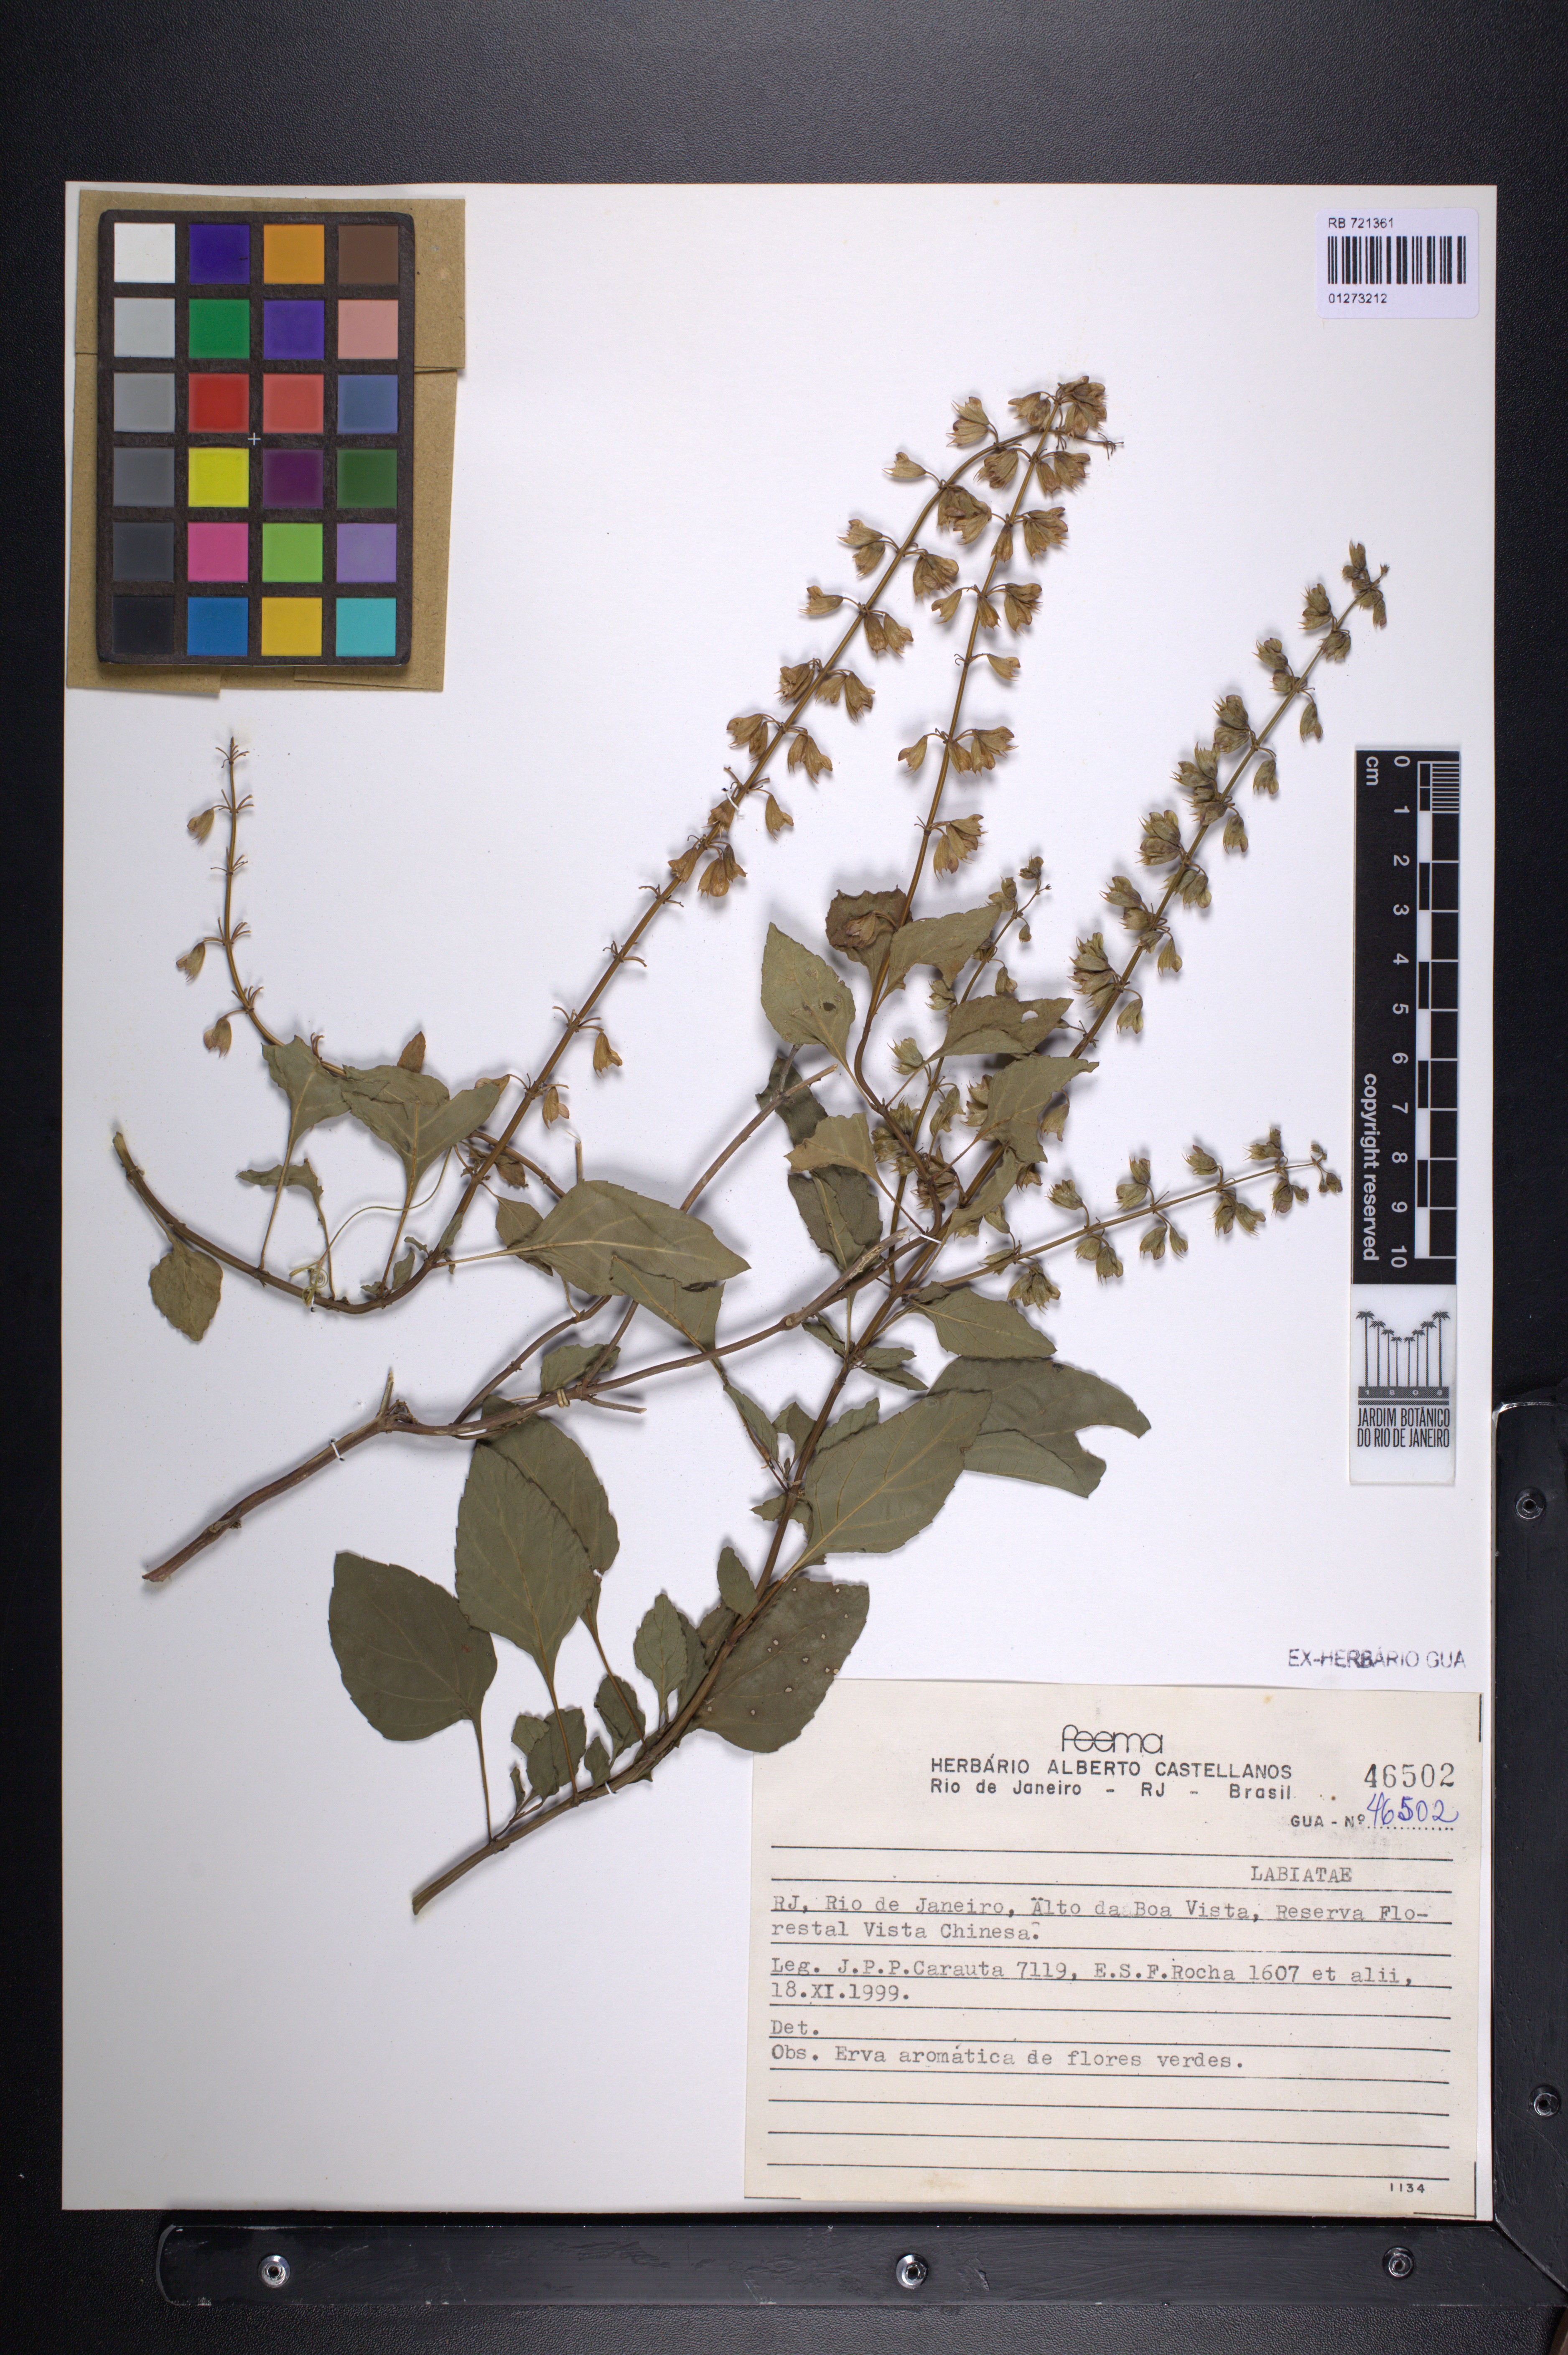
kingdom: Plantae
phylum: Tracheophyta
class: Magnoliopsida
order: Lamiales
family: Lamiaceae
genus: Ocimum
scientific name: Ocimum carnosum
